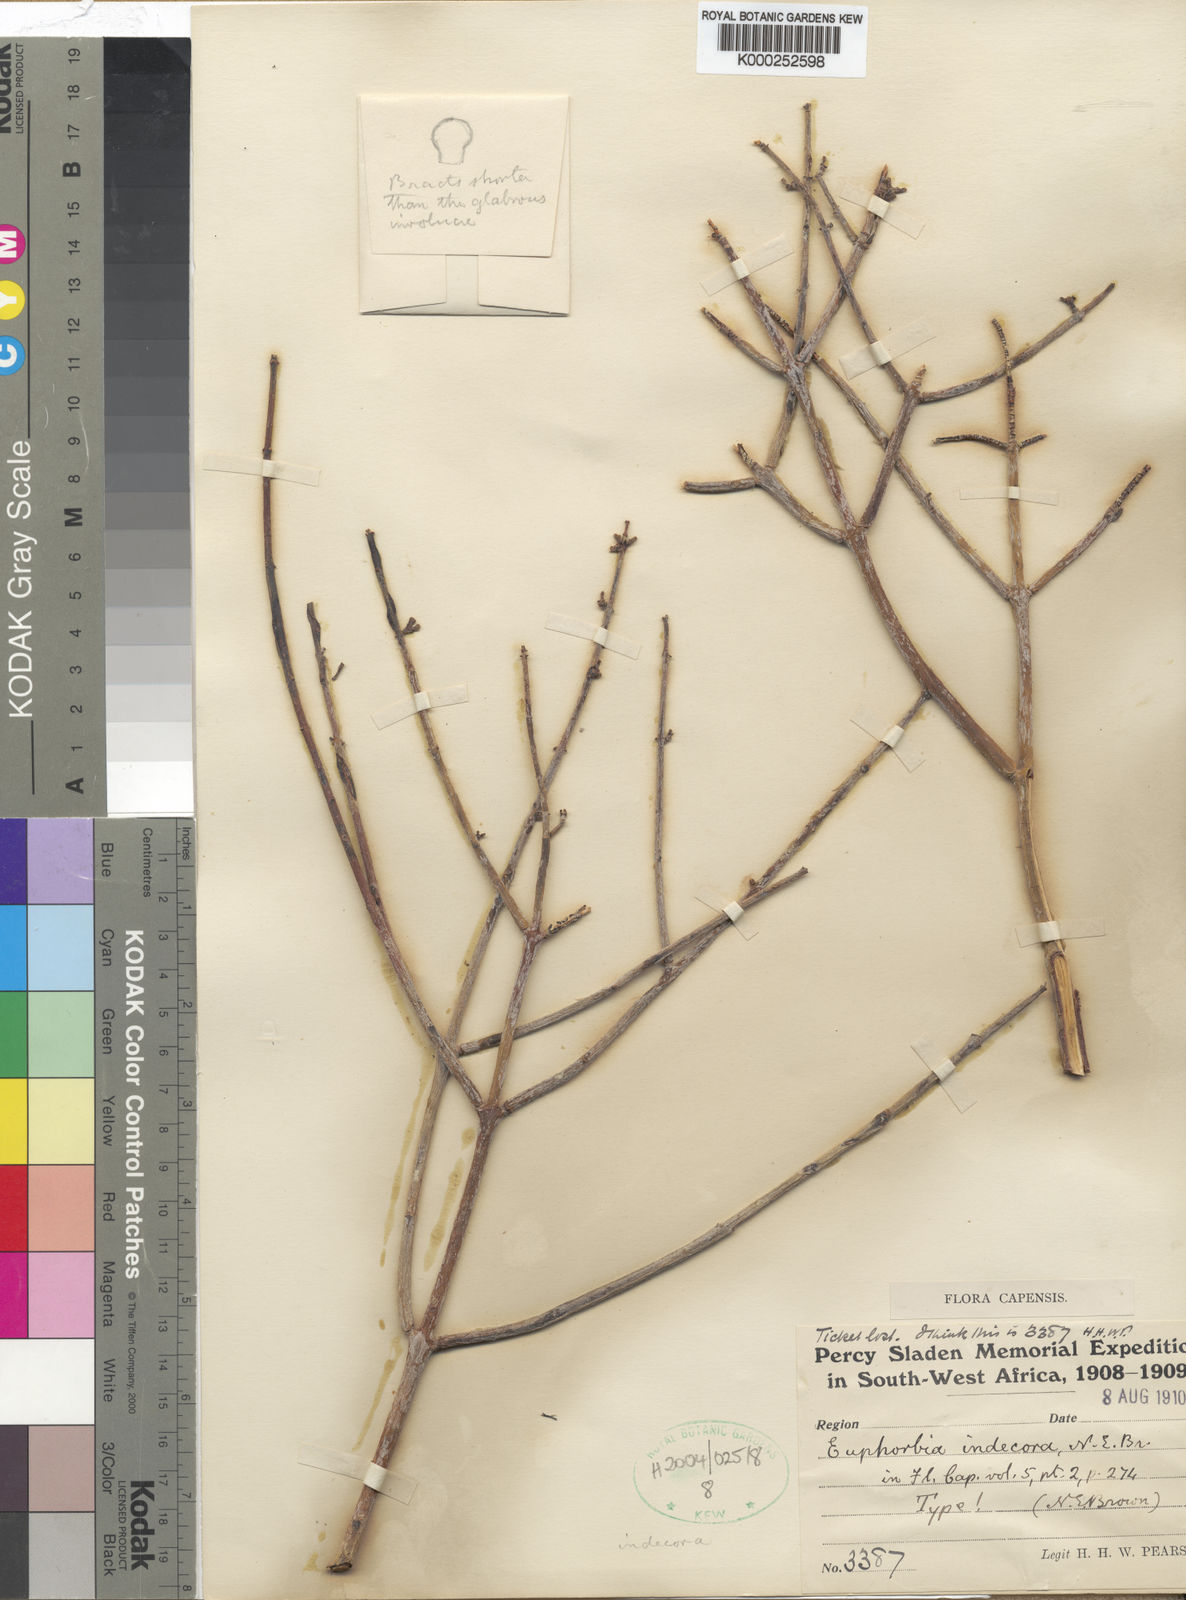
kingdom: Plantae
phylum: Tracheophyta
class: Magnoliopsida
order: Malpighiales
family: Euphorbiaceae
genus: Euphorbia
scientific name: Euphorbia spartaria
